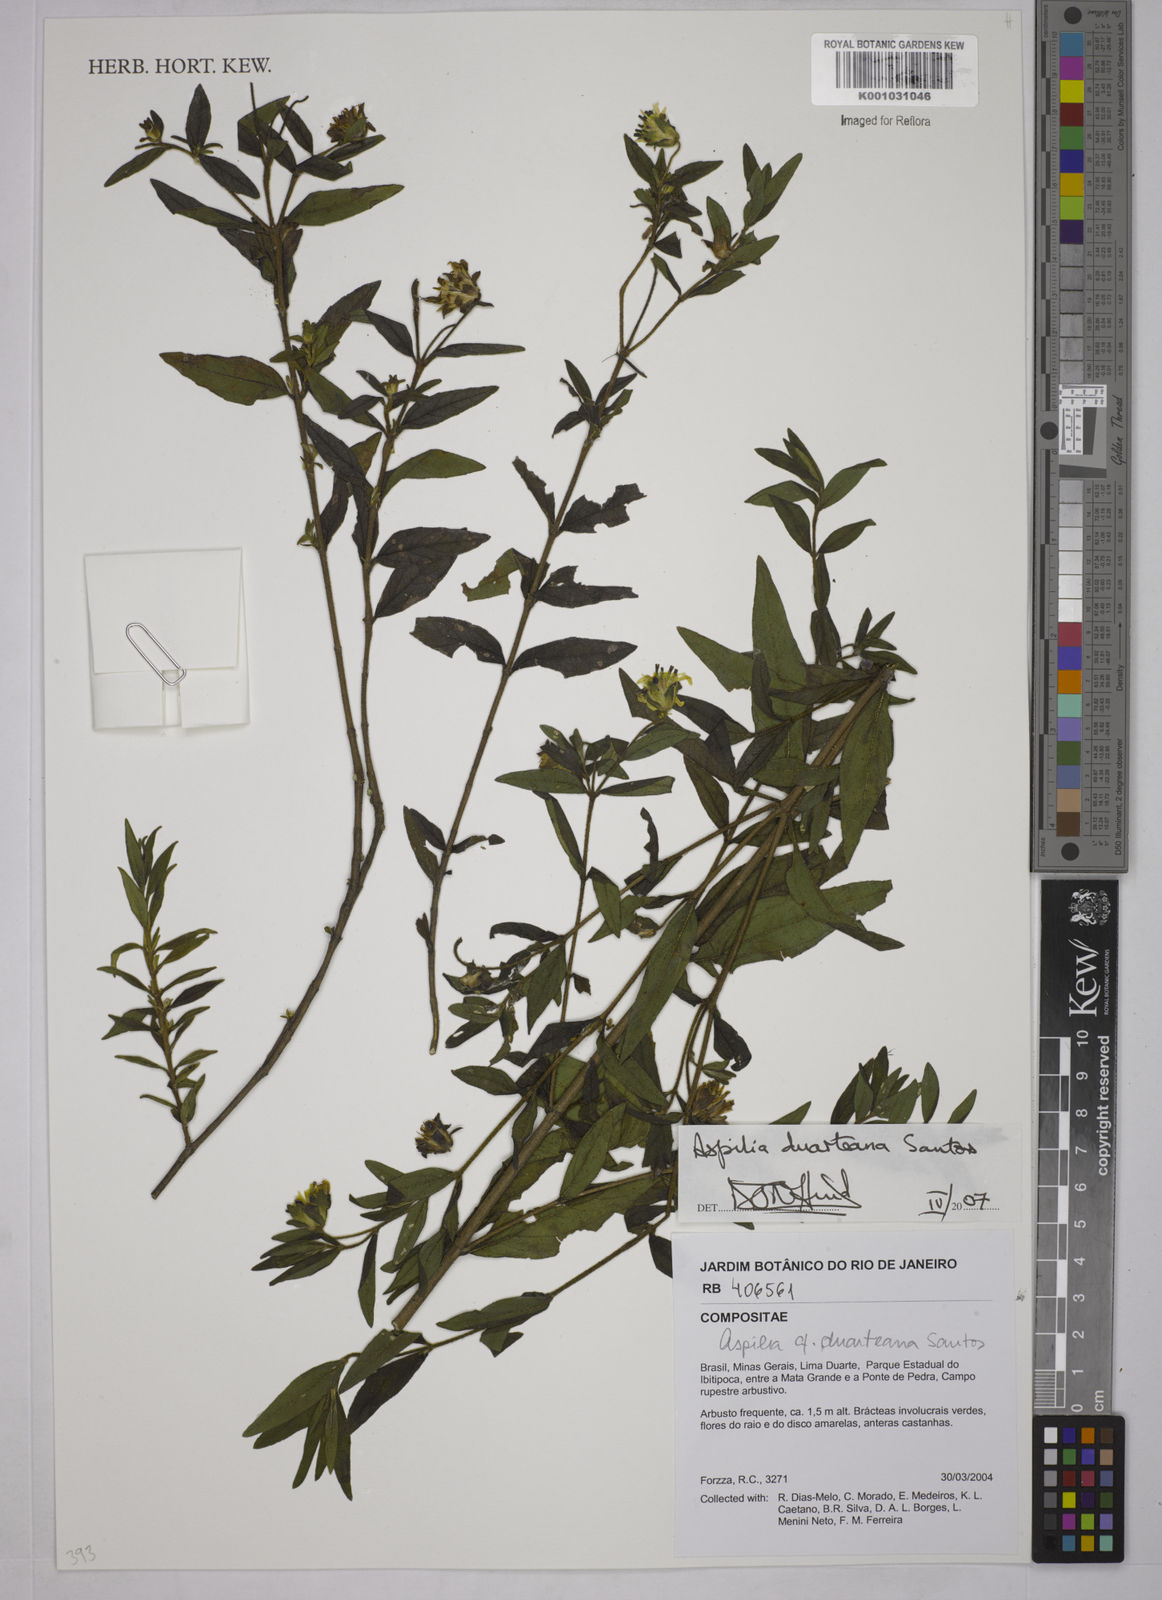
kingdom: Plantae
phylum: Tracheophyta
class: Magnoliopsida
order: Asterales
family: Asteraceae
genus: Aspilia
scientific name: Aspilia duarteana
